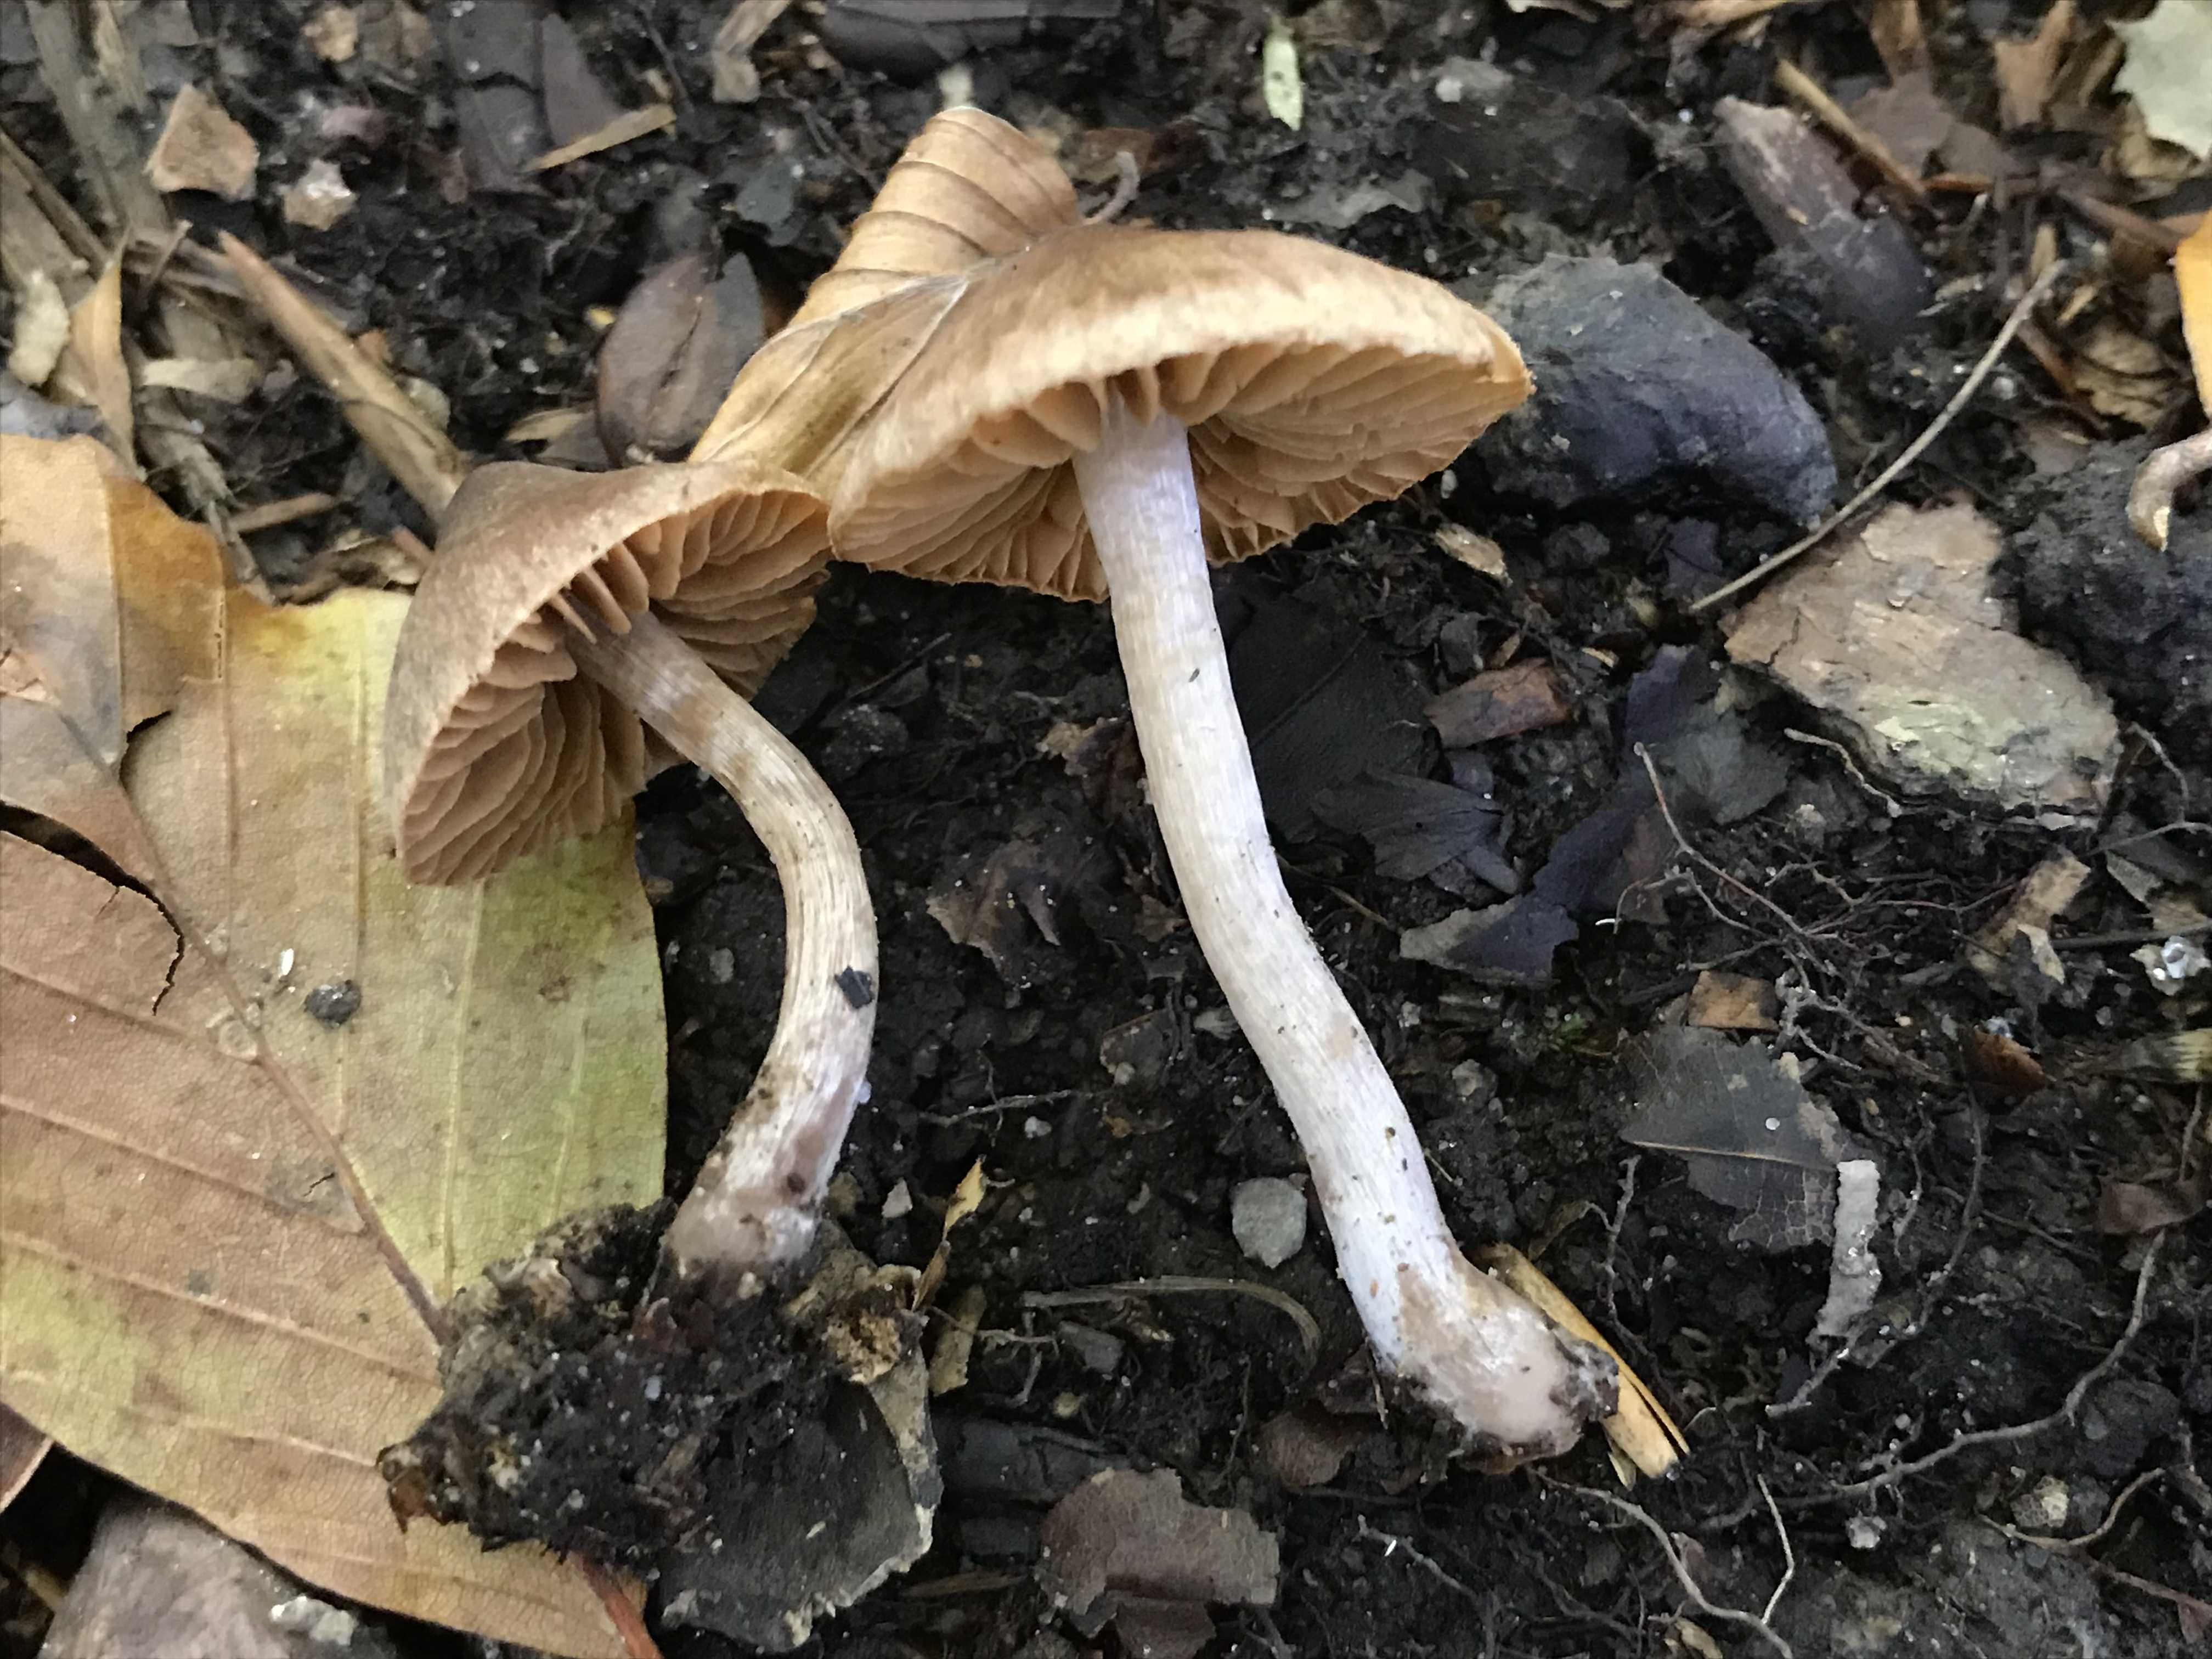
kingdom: Fungi
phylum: Basidiomycota
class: Agaricomycetes
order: Agaricales
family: Cortinariaceae
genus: Cortinarius
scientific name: Cortinarius
